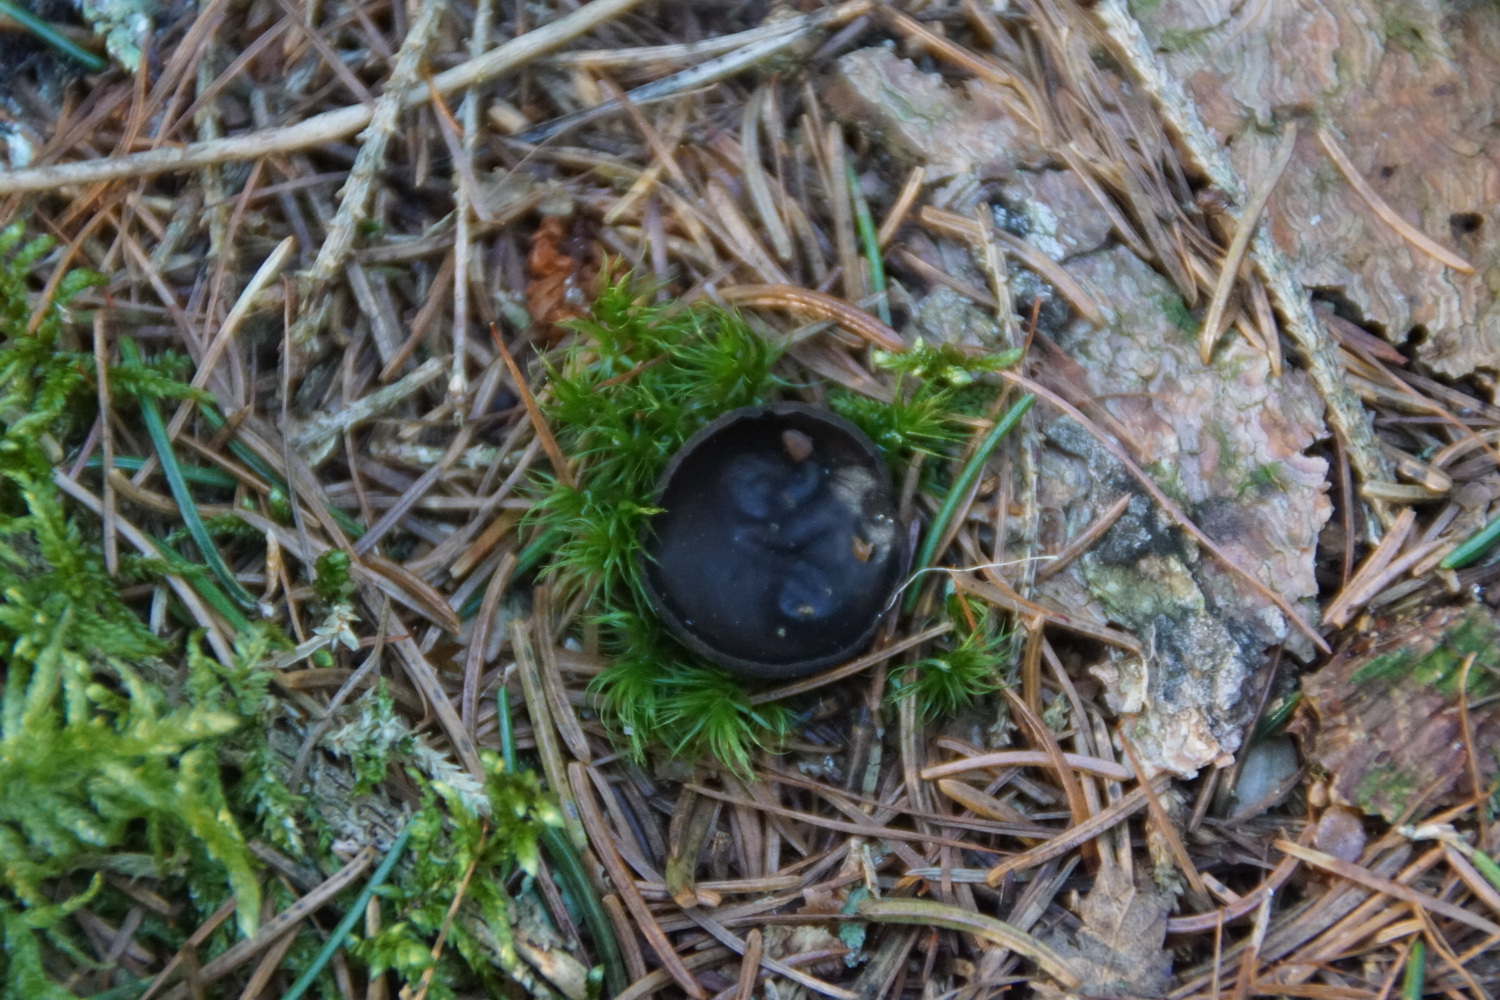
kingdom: Fungi
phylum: Ascomycota
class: Pezizomycetes
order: Pezizales
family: Sarcosomataceae
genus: Pseudoplectania
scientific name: Pseudoplectania nigrella
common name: almindelig sortbæger
